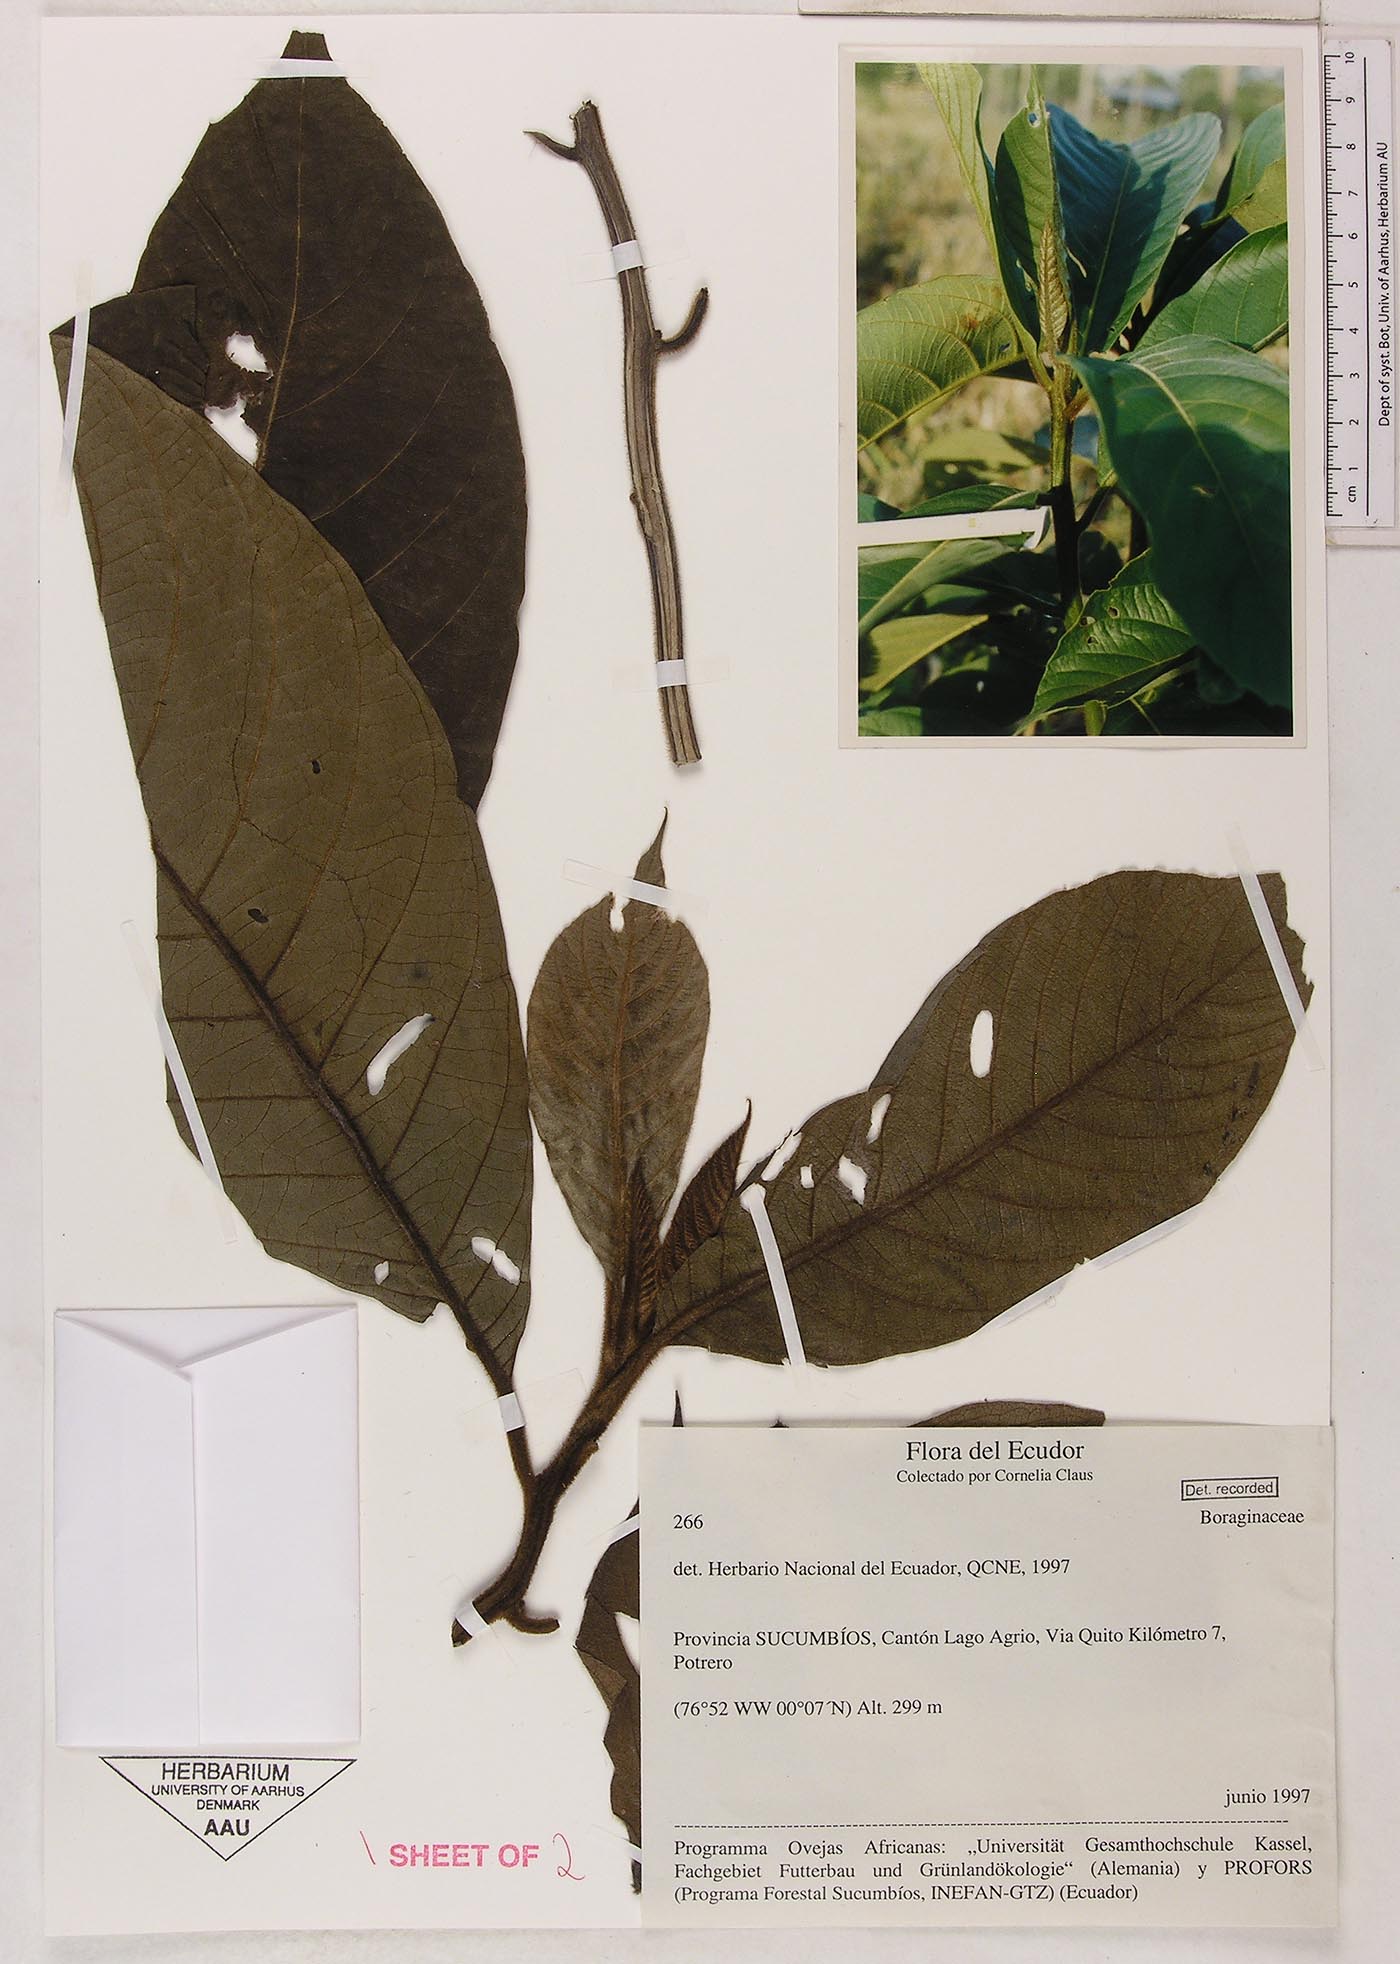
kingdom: Plantae
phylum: Tracheophyta
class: Magnoliopsida
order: Boraginales
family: Heliotropiaceae
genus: Heliotropium
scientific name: Heliotropium cuspidatum
